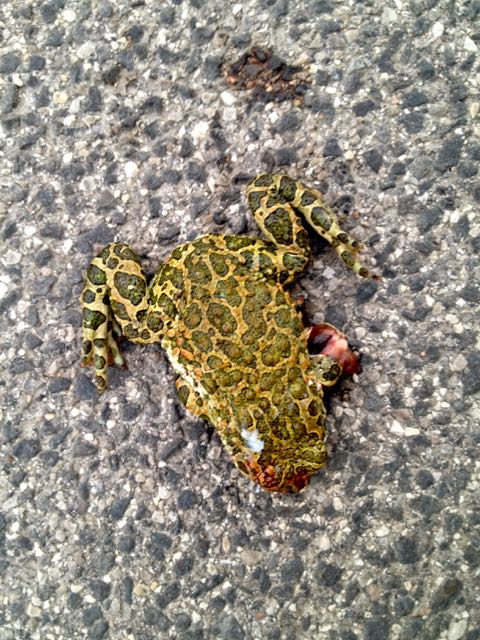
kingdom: Animalia
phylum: Chordata
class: Amphibia
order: Anura
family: Bufonidae
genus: Bufotes
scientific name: Bufotes viridis
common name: European green toad
